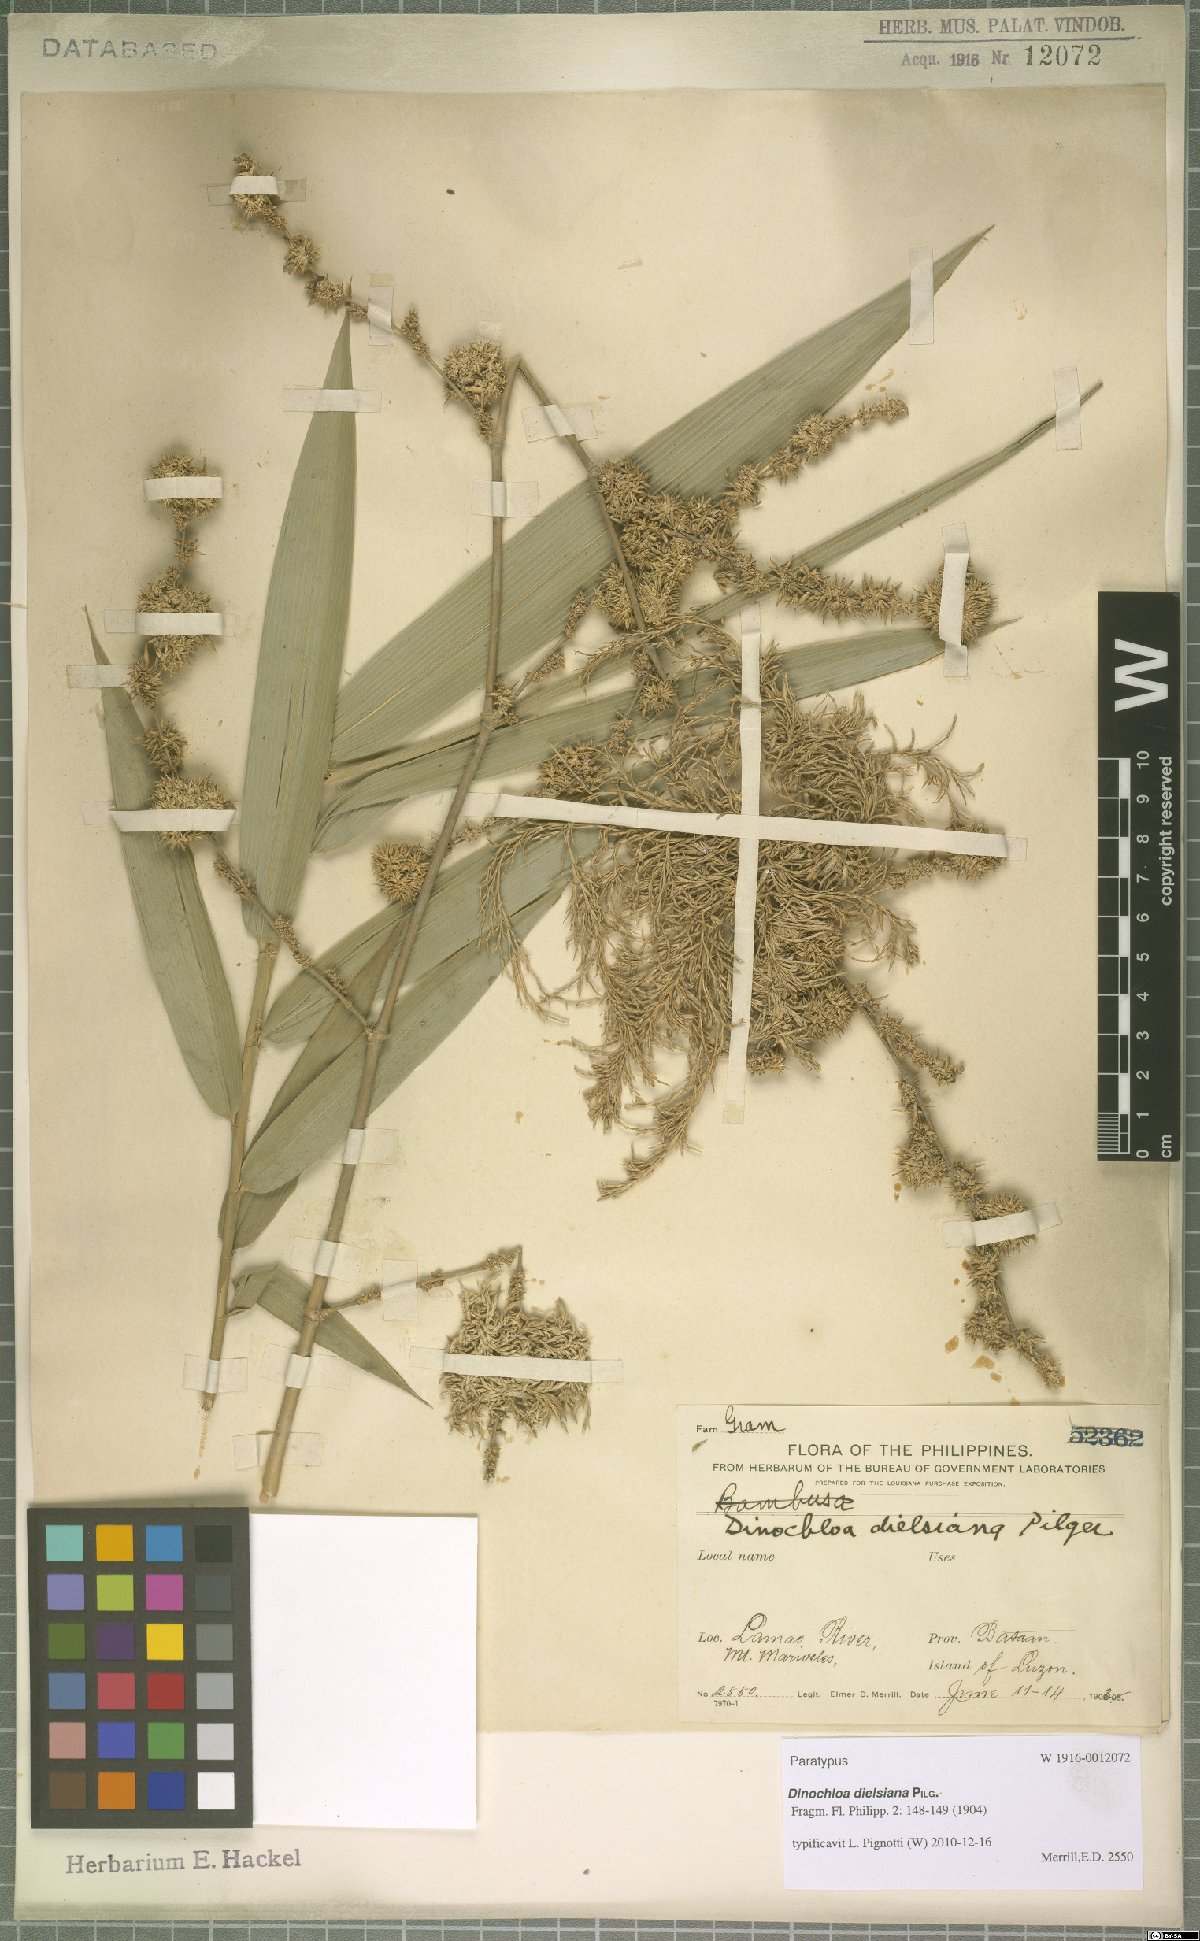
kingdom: Plantae
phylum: Tracheophyta
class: Liliopsida
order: Poales
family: Poaceae
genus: Dinochloa
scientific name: Dinochloa dielsiana
